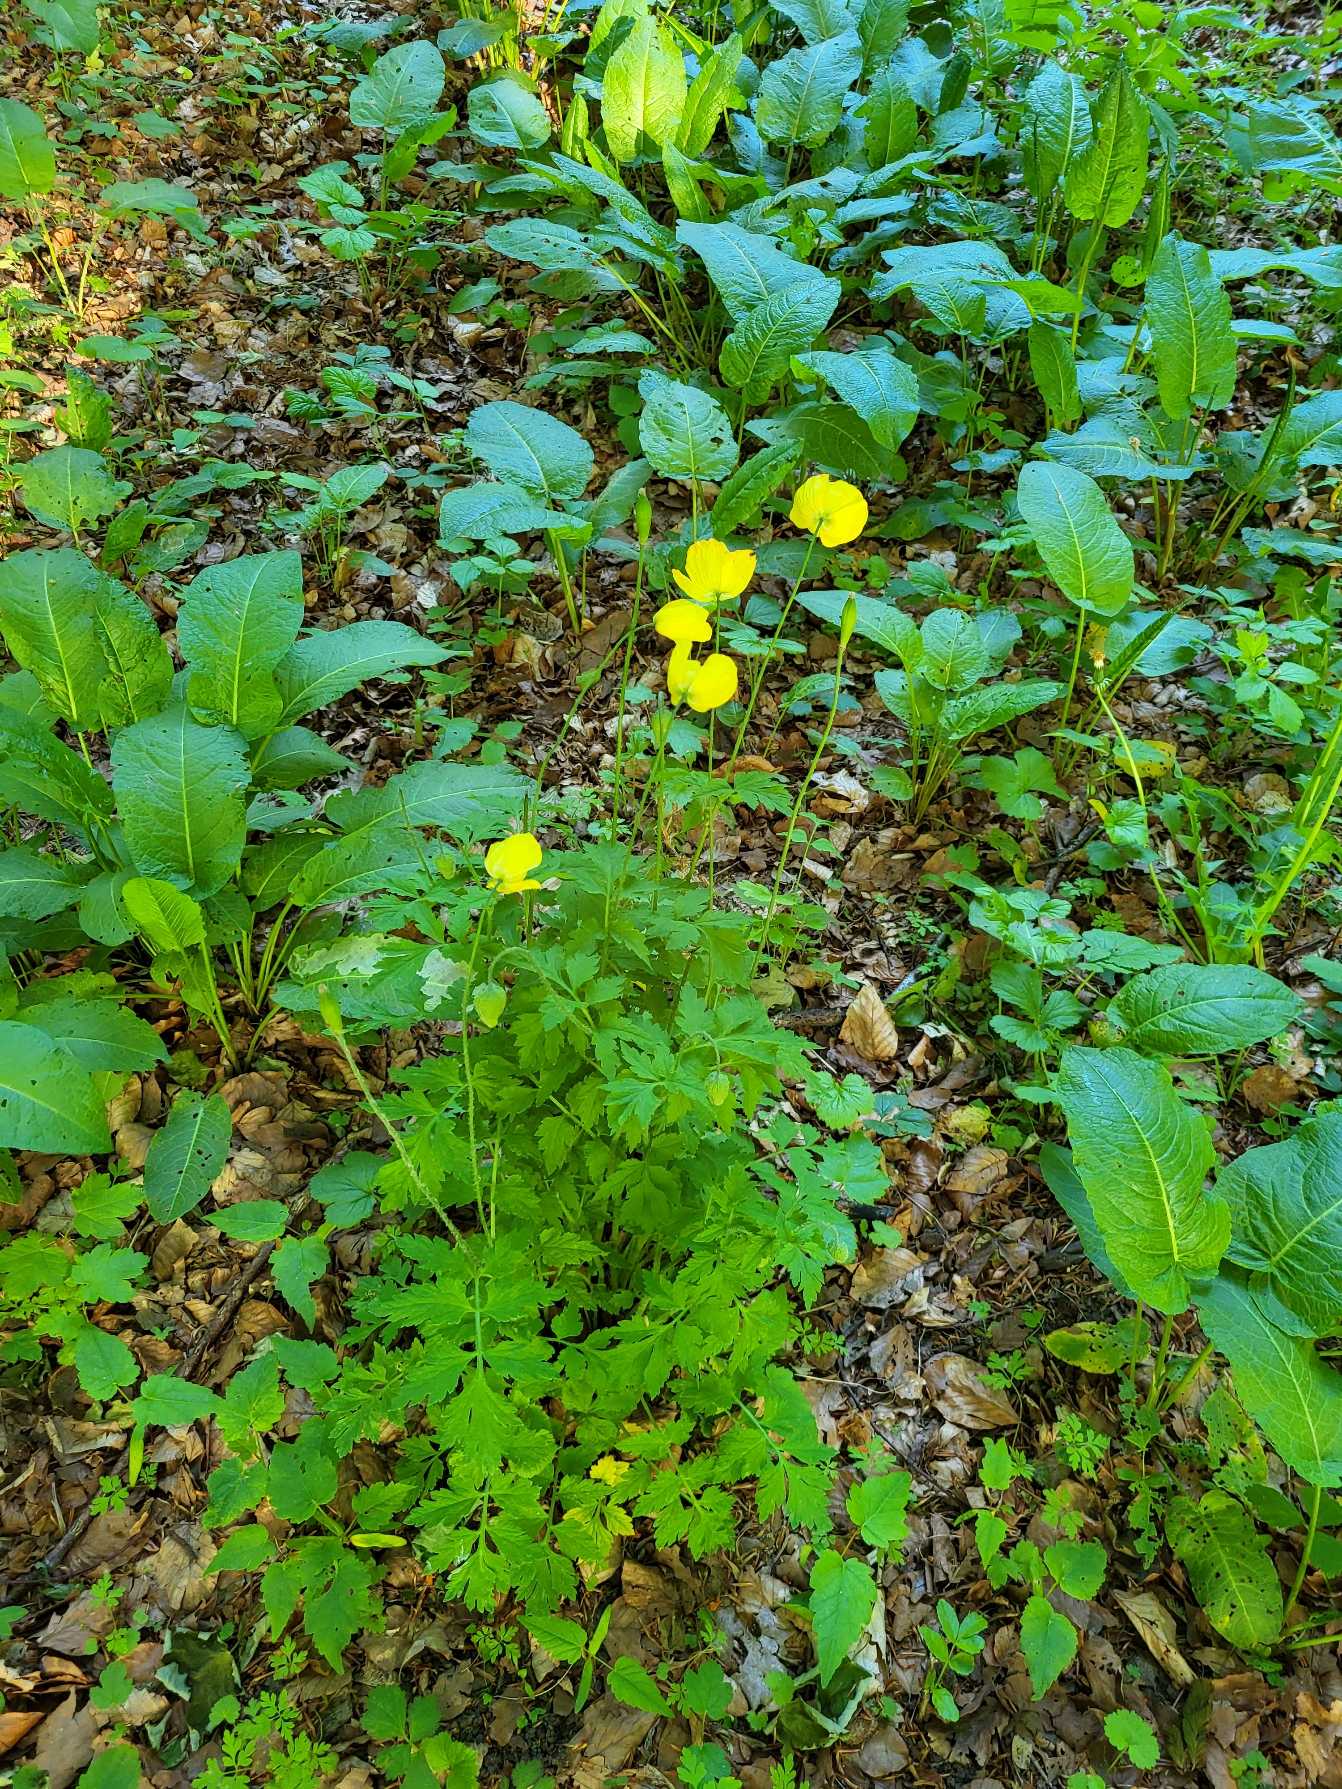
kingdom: Plantae
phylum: Tracheophyta
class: Magnoliopsida
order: Ranunculales
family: Papaveraceae
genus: Papaver
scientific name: Papaver cambricum
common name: Skov-valmue
